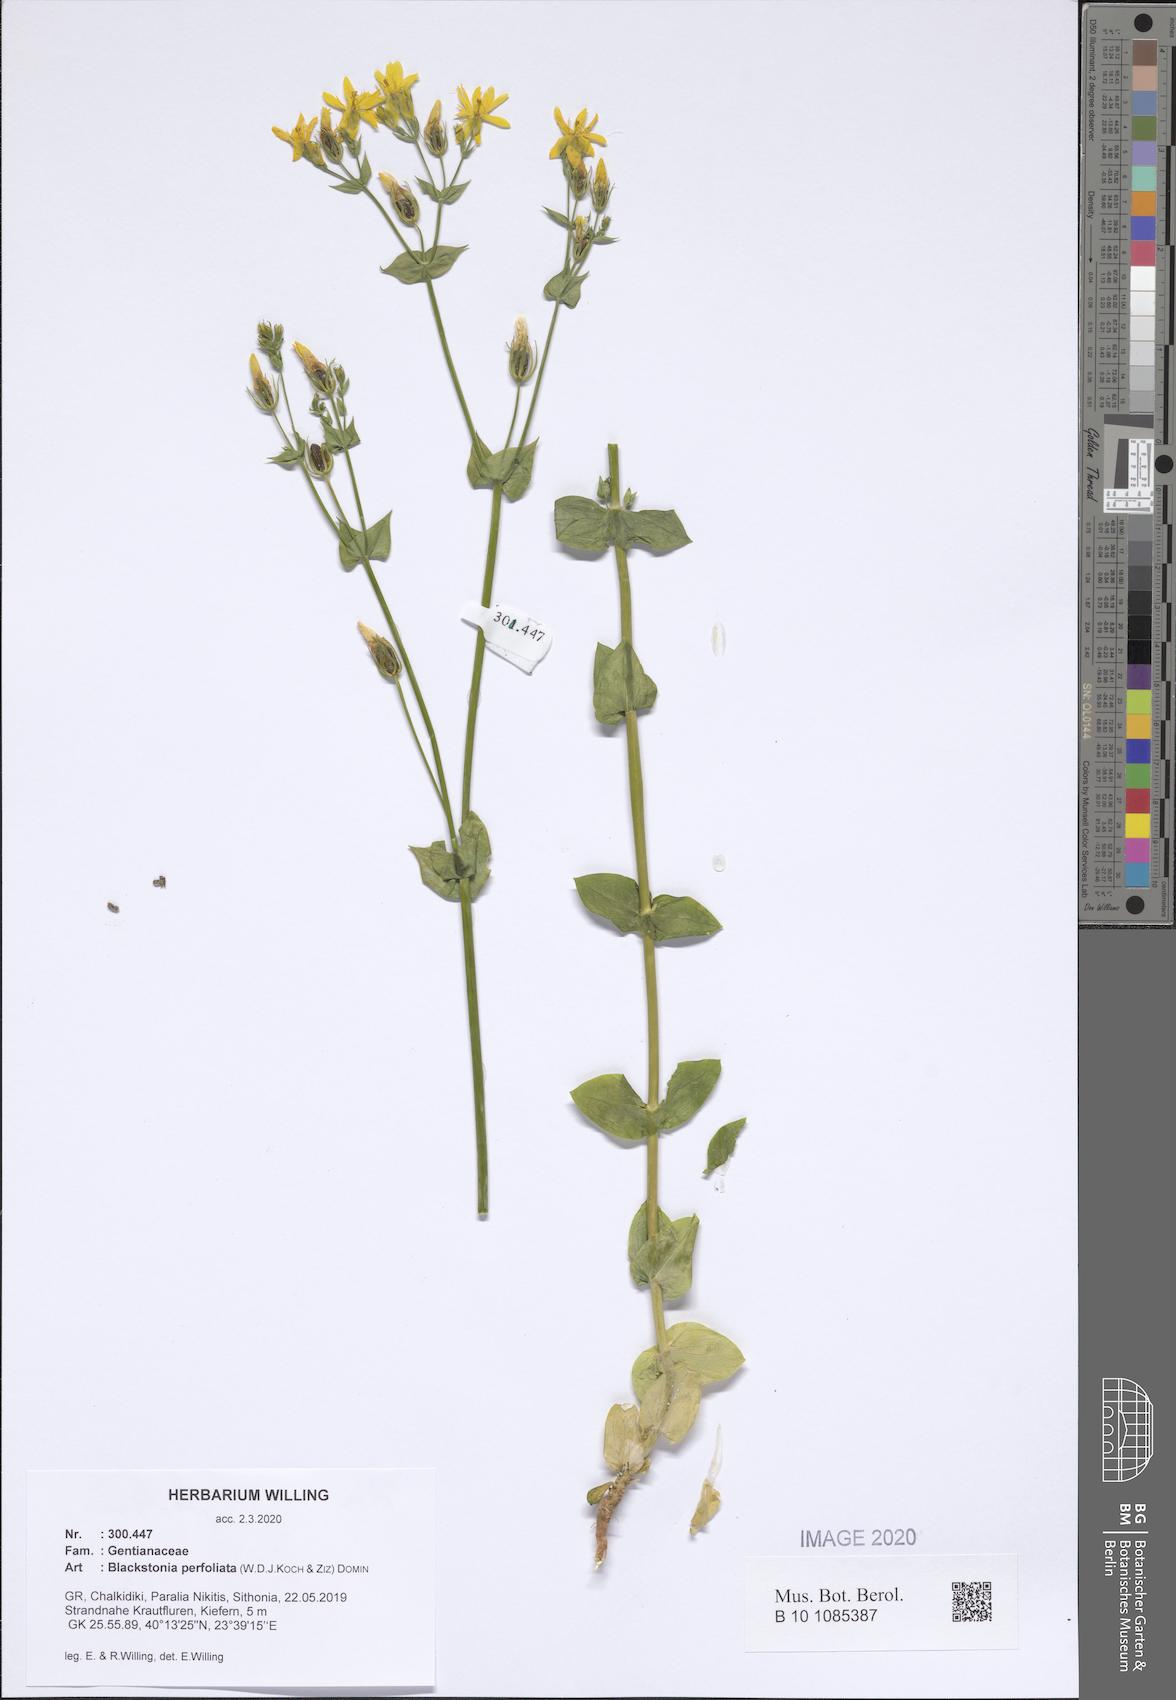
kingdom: Plantae
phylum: Tracheophyta
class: Magnoliopsida
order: Gentianales
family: Gentianaceae
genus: Blackstonia
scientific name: Blackstonia perfoliata
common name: Yellow-wort
